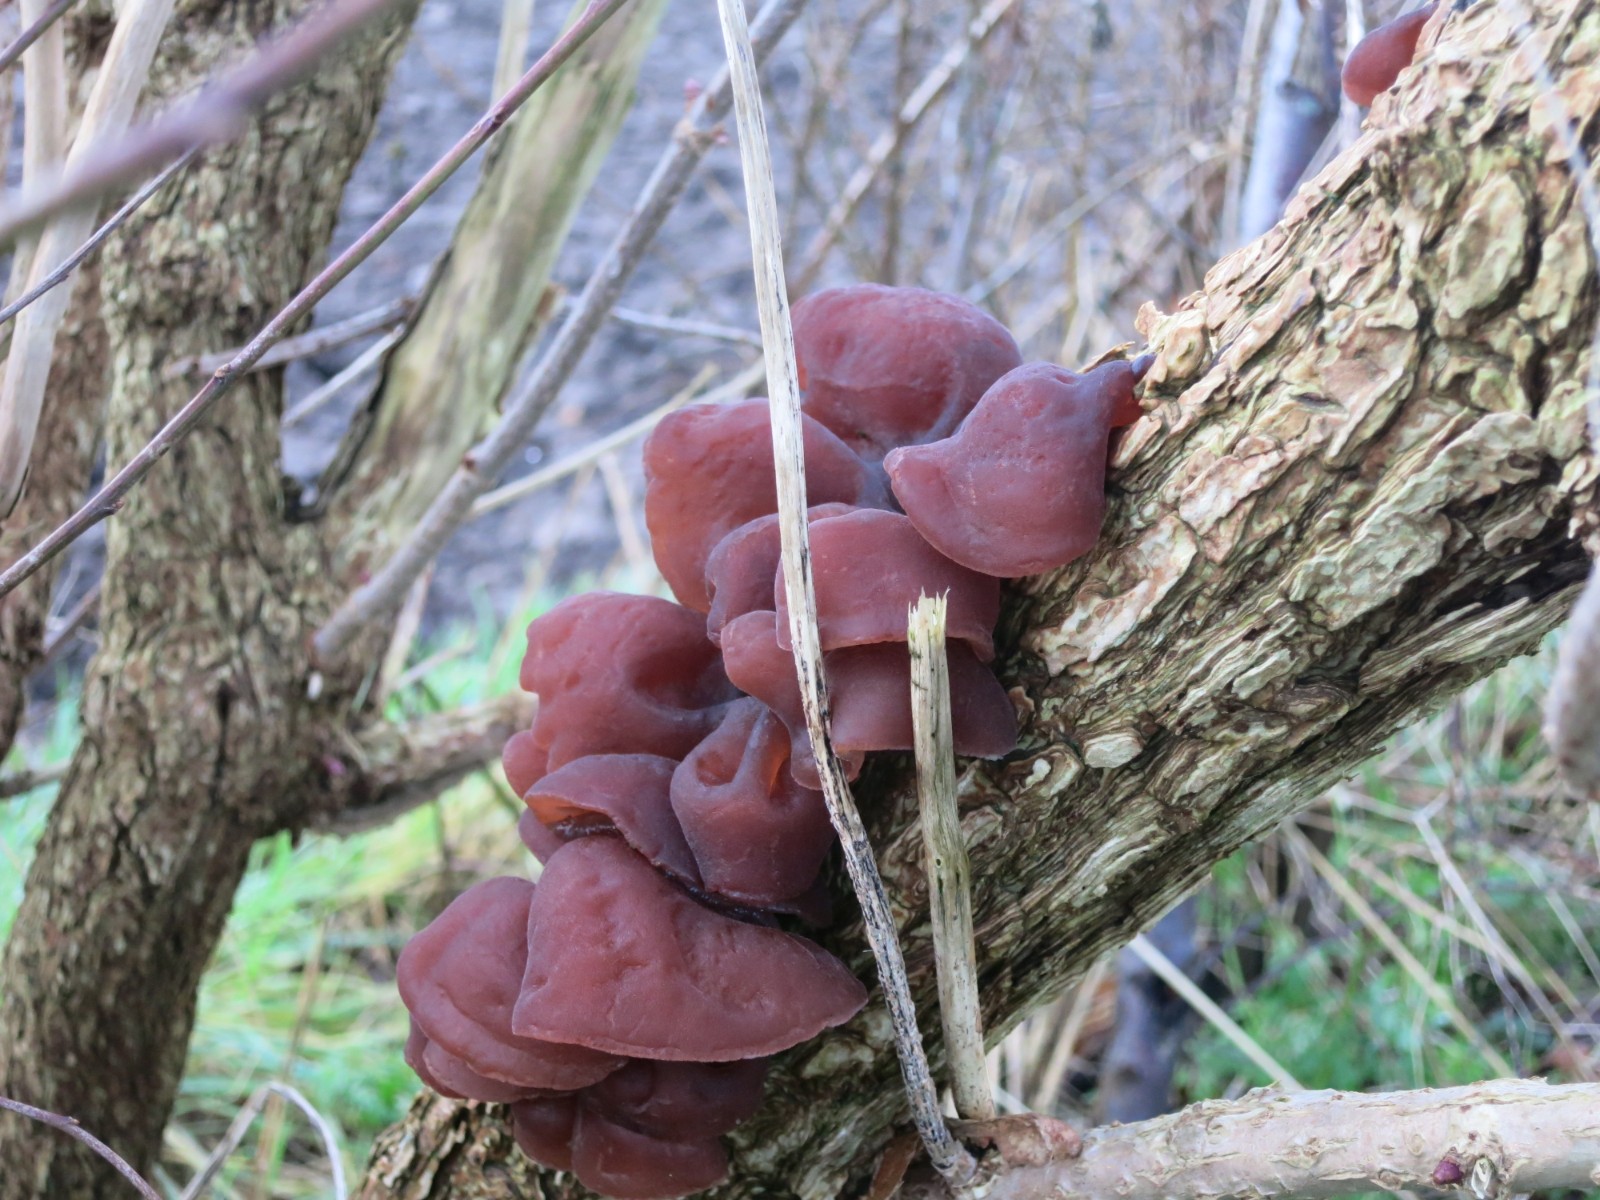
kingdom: Fungi
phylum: Basidiomycota
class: Agaricomycetes
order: Auriculariales
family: Auriculariaceae
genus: Auricularia
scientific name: Auricularia auricula-judae
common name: almindelig judasøre
